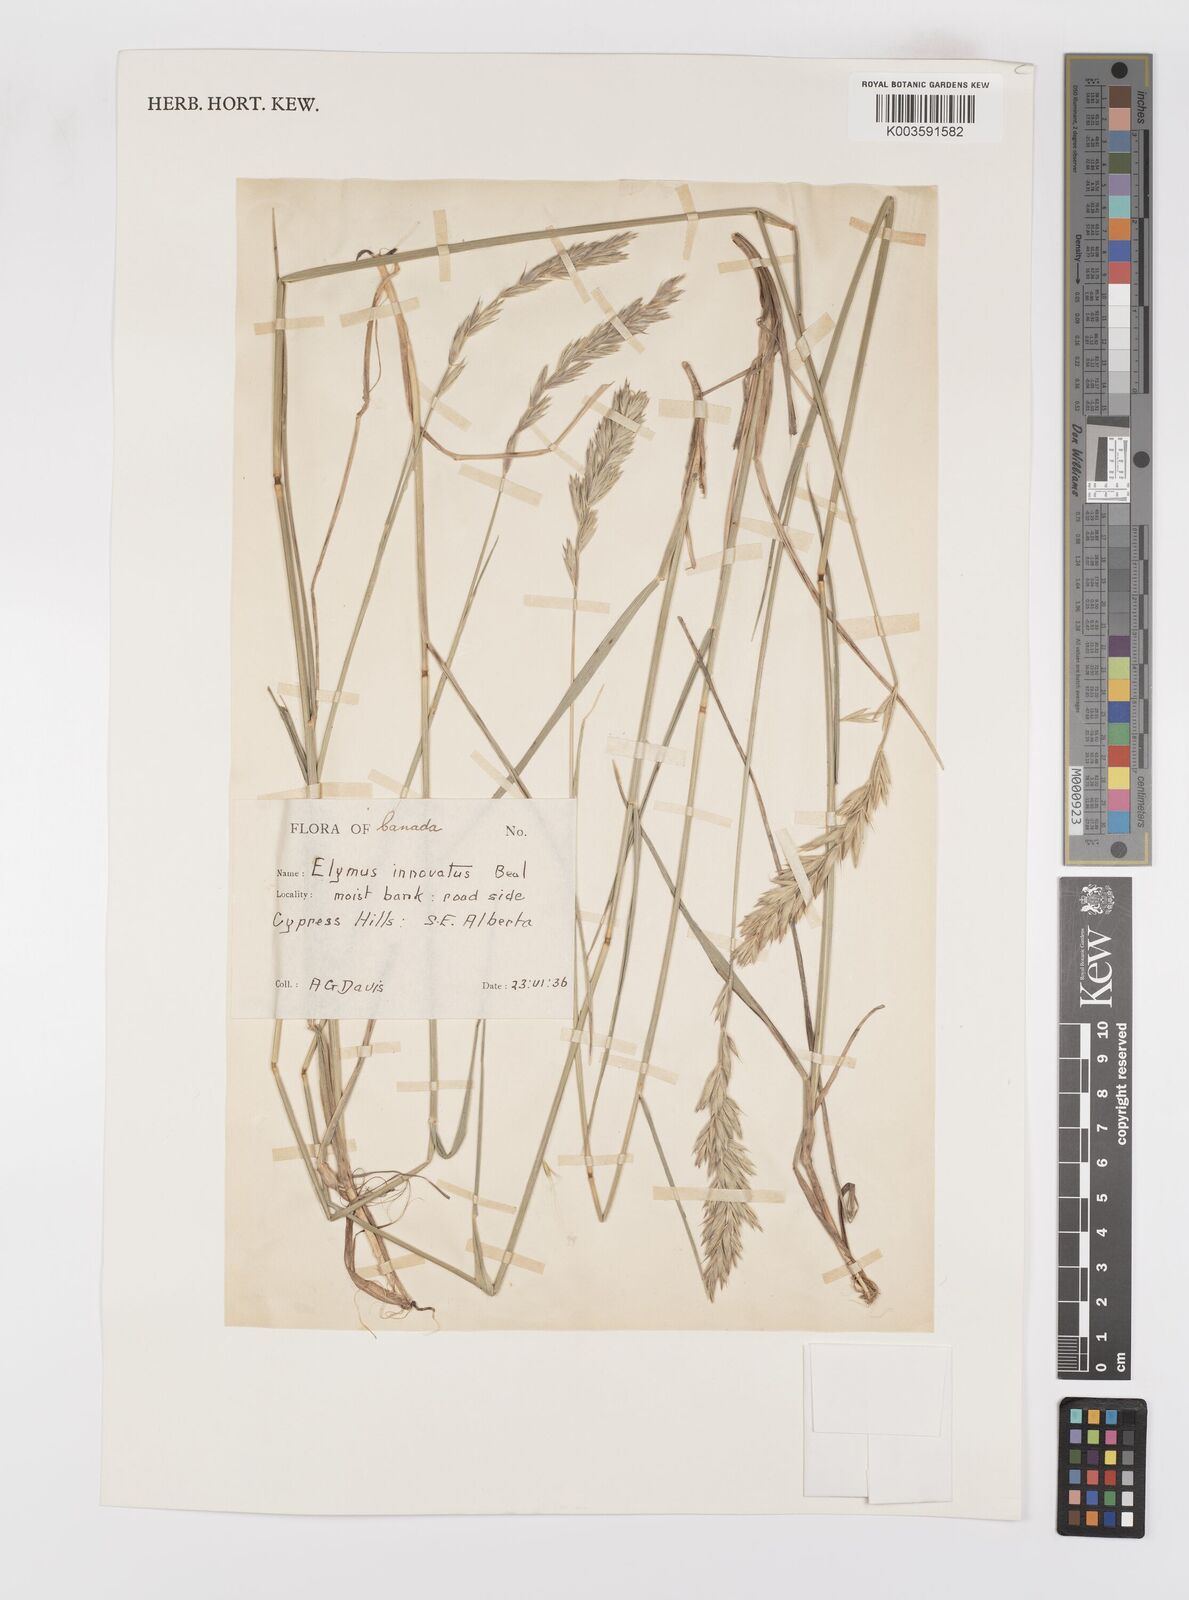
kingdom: Plantae
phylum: Tracheophyta
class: Liliopsida
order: Poales
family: Poaceae
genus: Leymus
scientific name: Leymus innovatus
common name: Boreal wild rye
